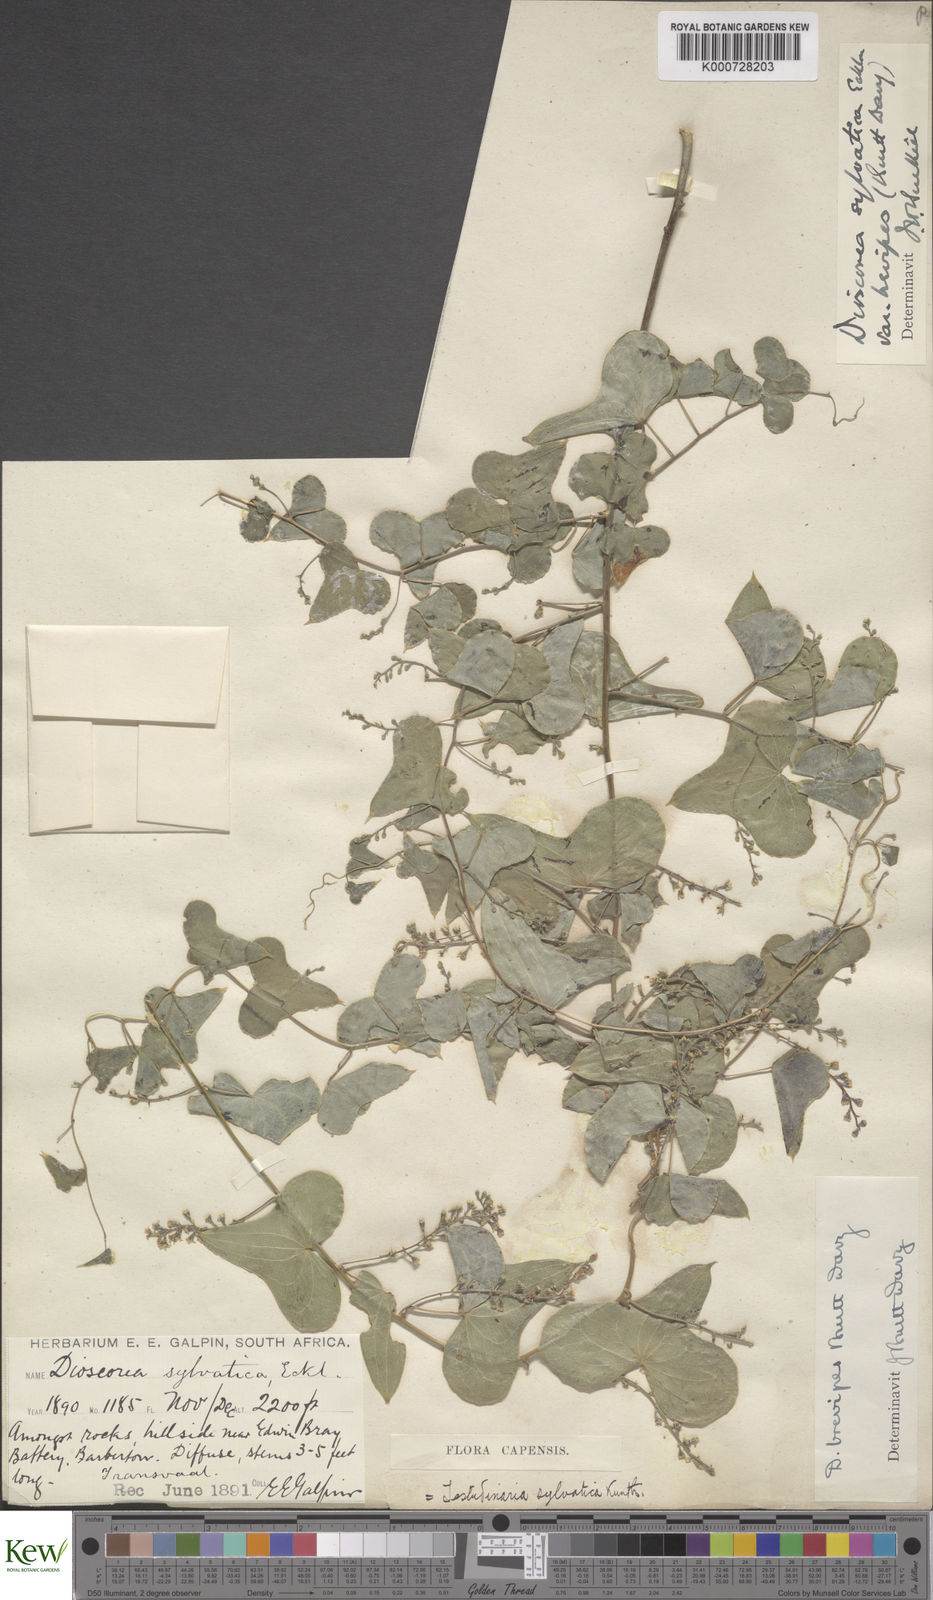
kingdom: Plantae
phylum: Tracheophyta
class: Liliopsida
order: Dioscoreales
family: Dioscoreaceae
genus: Dioscorea
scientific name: Dioscorea sylvatica
